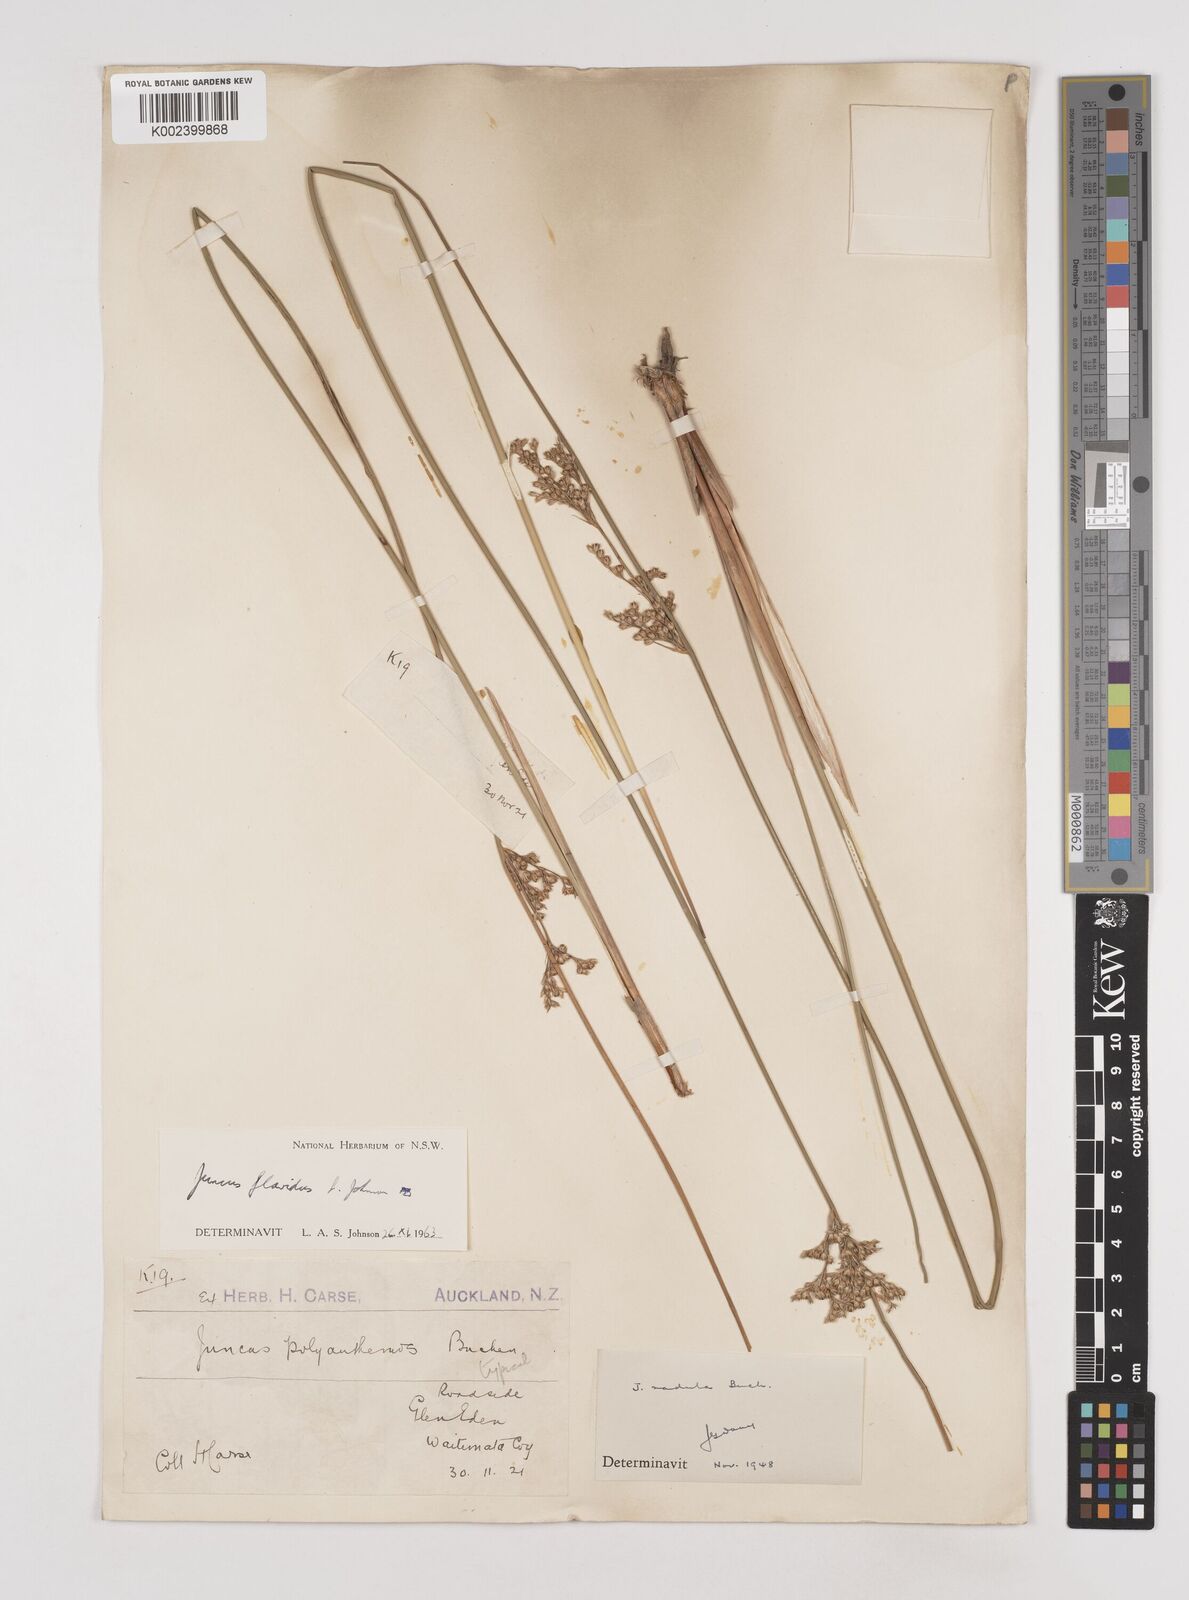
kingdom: Plantae
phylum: Tracheophyta
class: Liliopsida
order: Poales
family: Juncaceae
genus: Juncus
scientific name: Juncus flavidus
